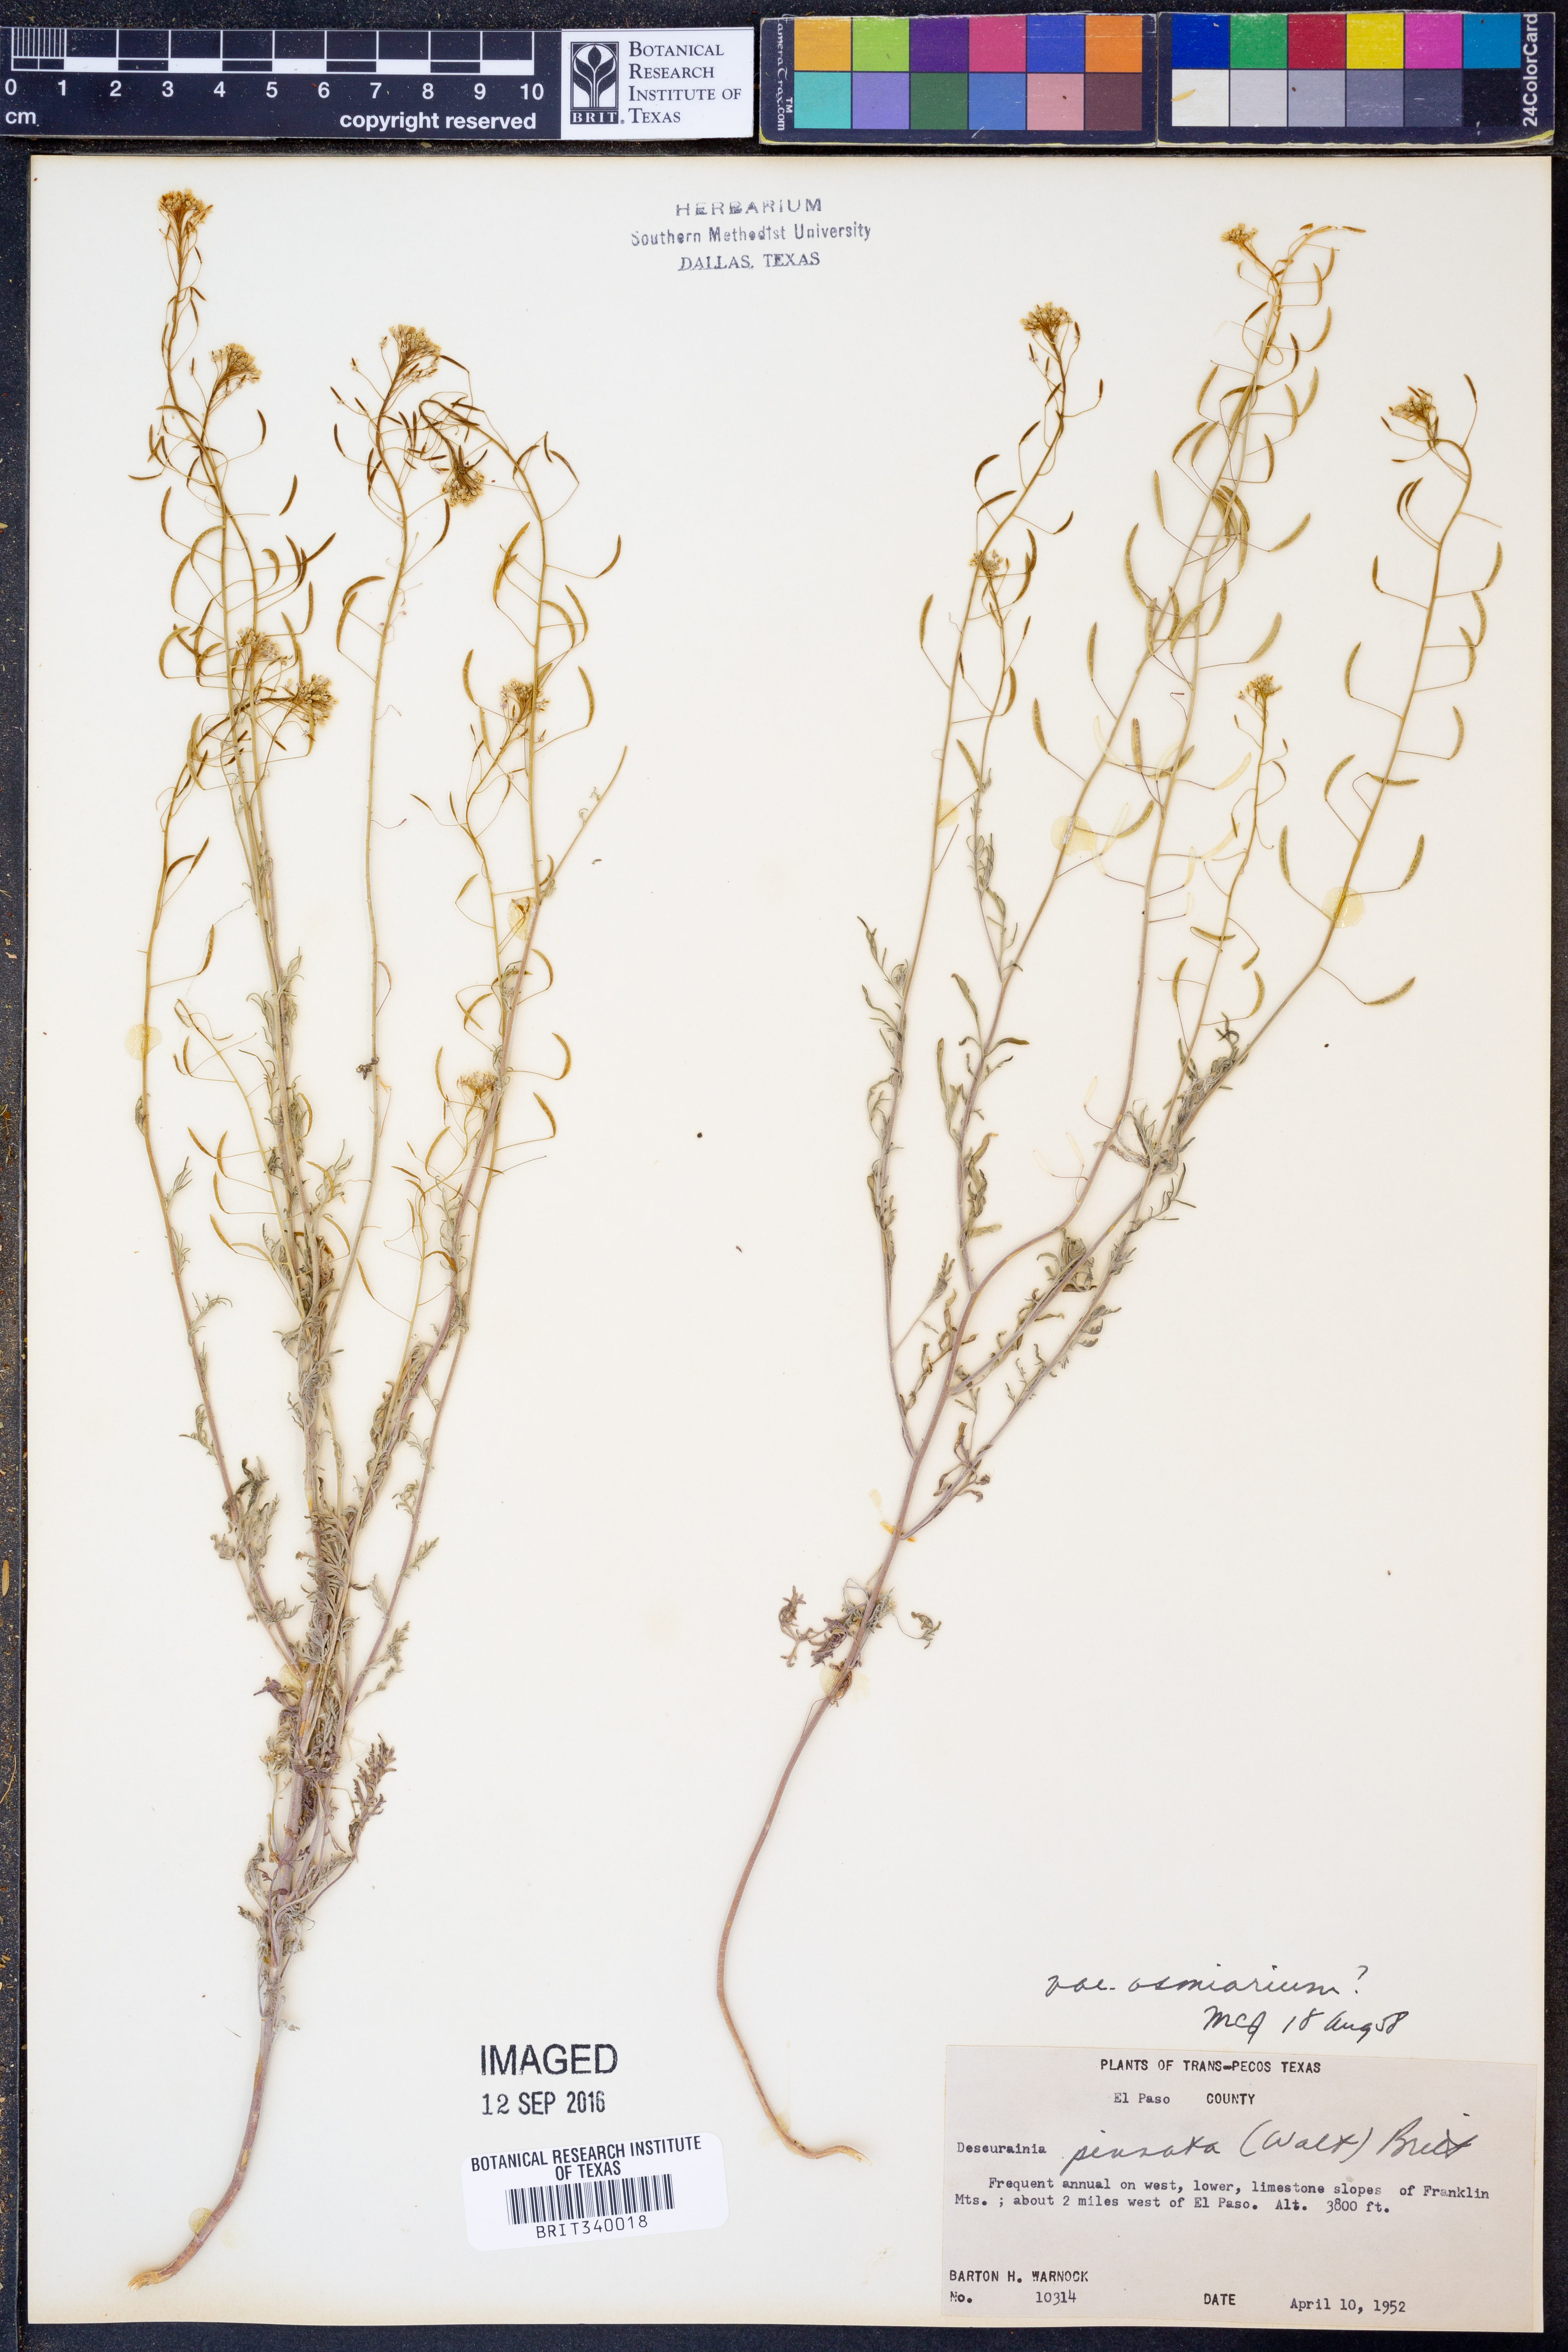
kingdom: Plantae
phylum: Tracheophyta
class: Magnoliopsida
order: Brassicales
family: Brassicaceae
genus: Descurainia
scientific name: Descurainia pinnata
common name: Western tansy mustard
